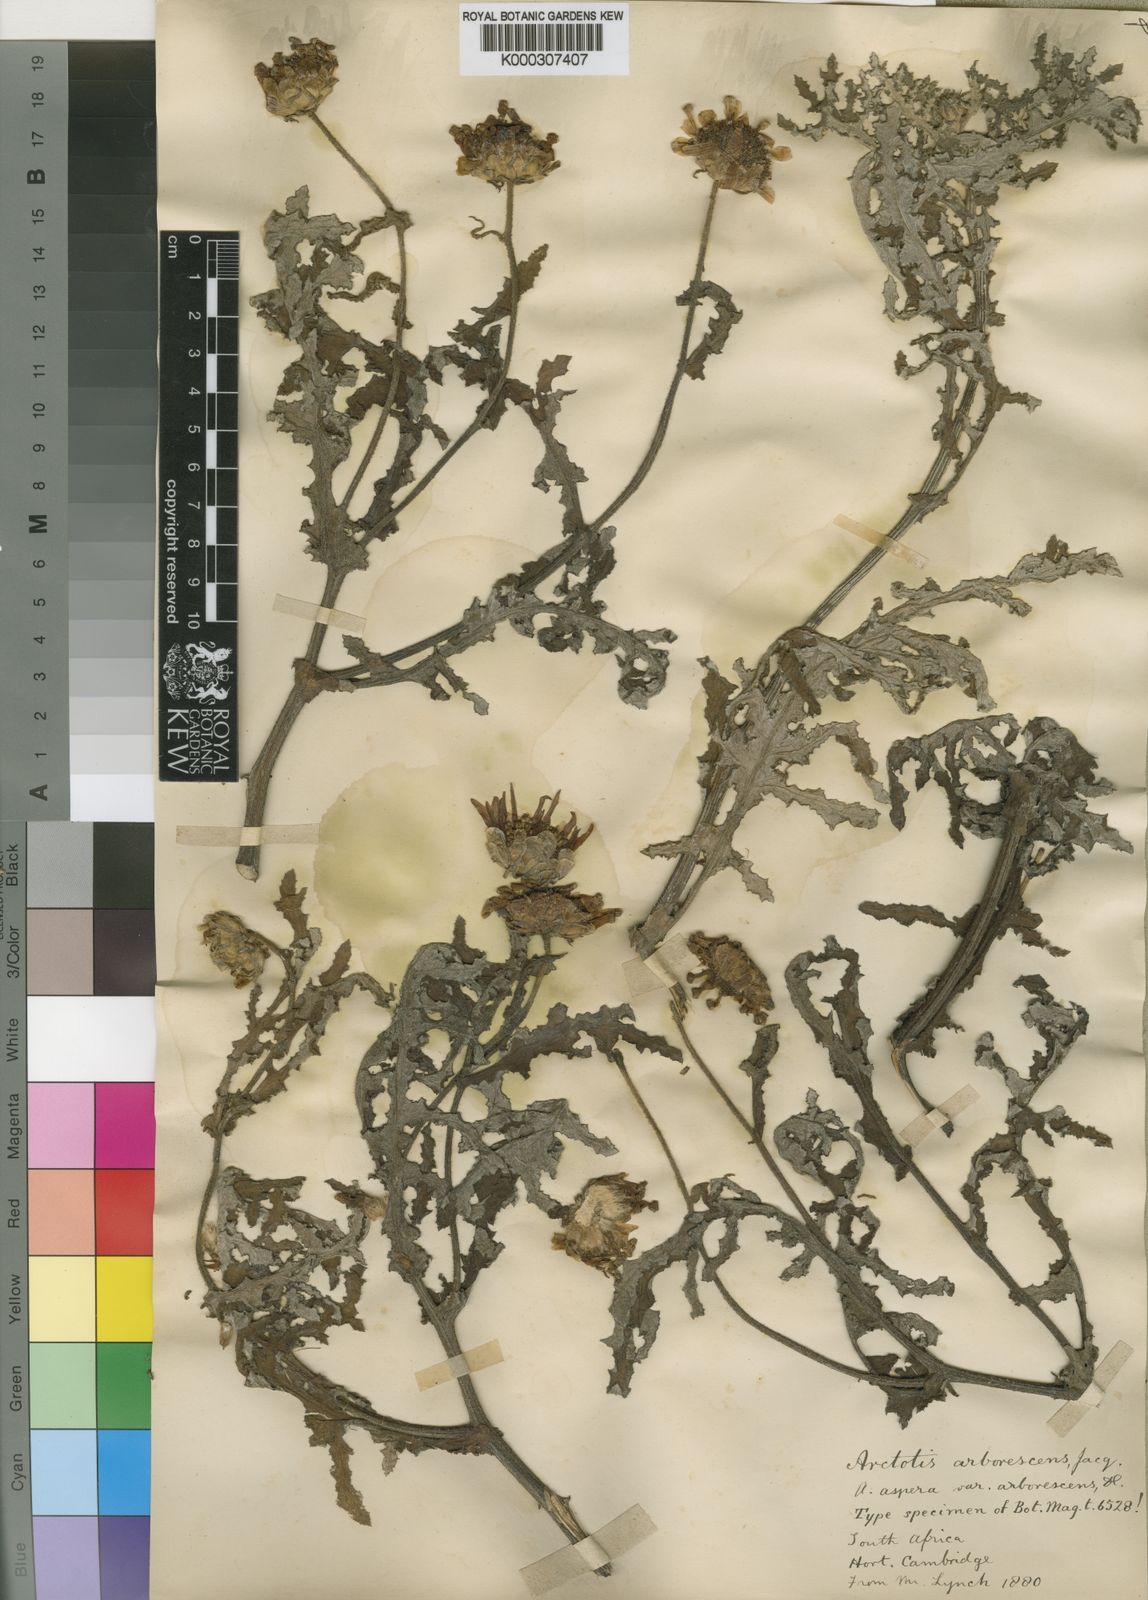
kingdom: Plantae
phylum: Tracheophyta
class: Magnoliopsida
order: Asterales
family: Asteraceae
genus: Arctotis
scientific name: Arctotis aspera
